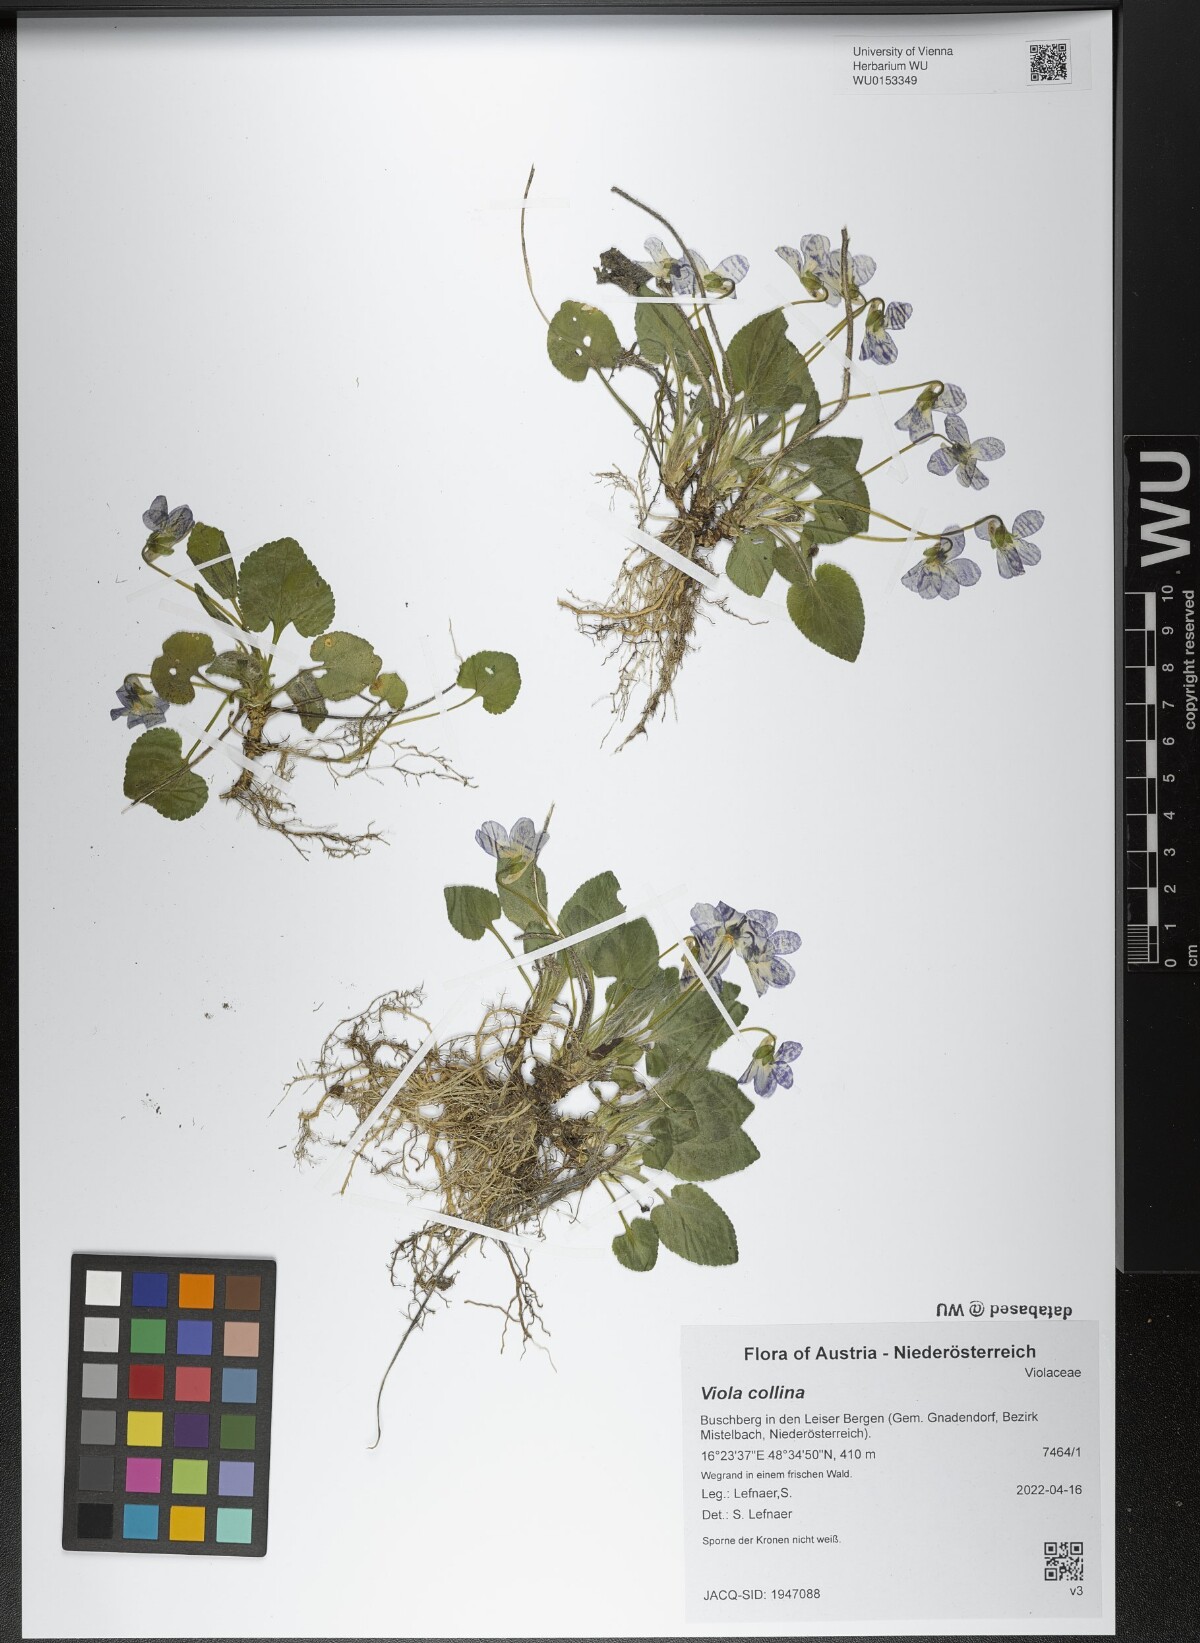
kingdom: Plantae
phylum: Tracheophyta
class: Magnoliopsida
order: Malpighiales
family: Violaceae
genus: Viola
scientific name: Viola collina
